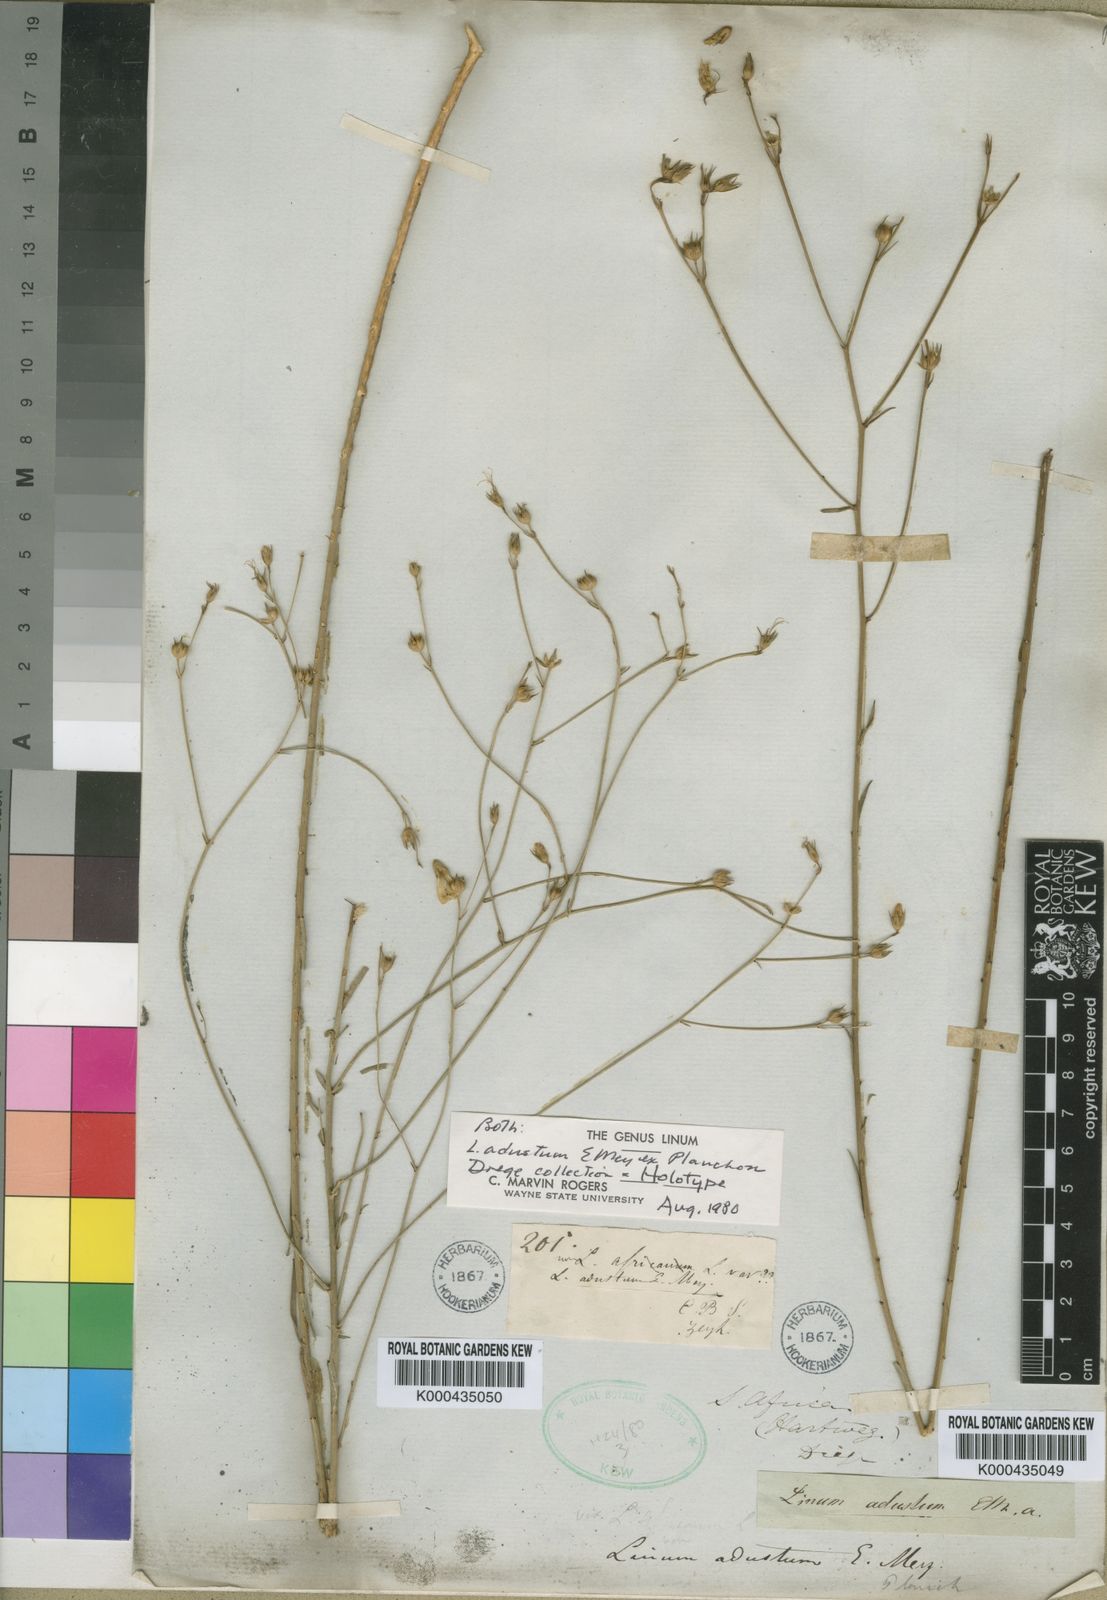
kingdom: Plantae
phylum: Tracheophyta
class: Magnoliopsida
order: Malpighiales
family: Linaceae
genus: Linum
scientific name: Linum adustum
